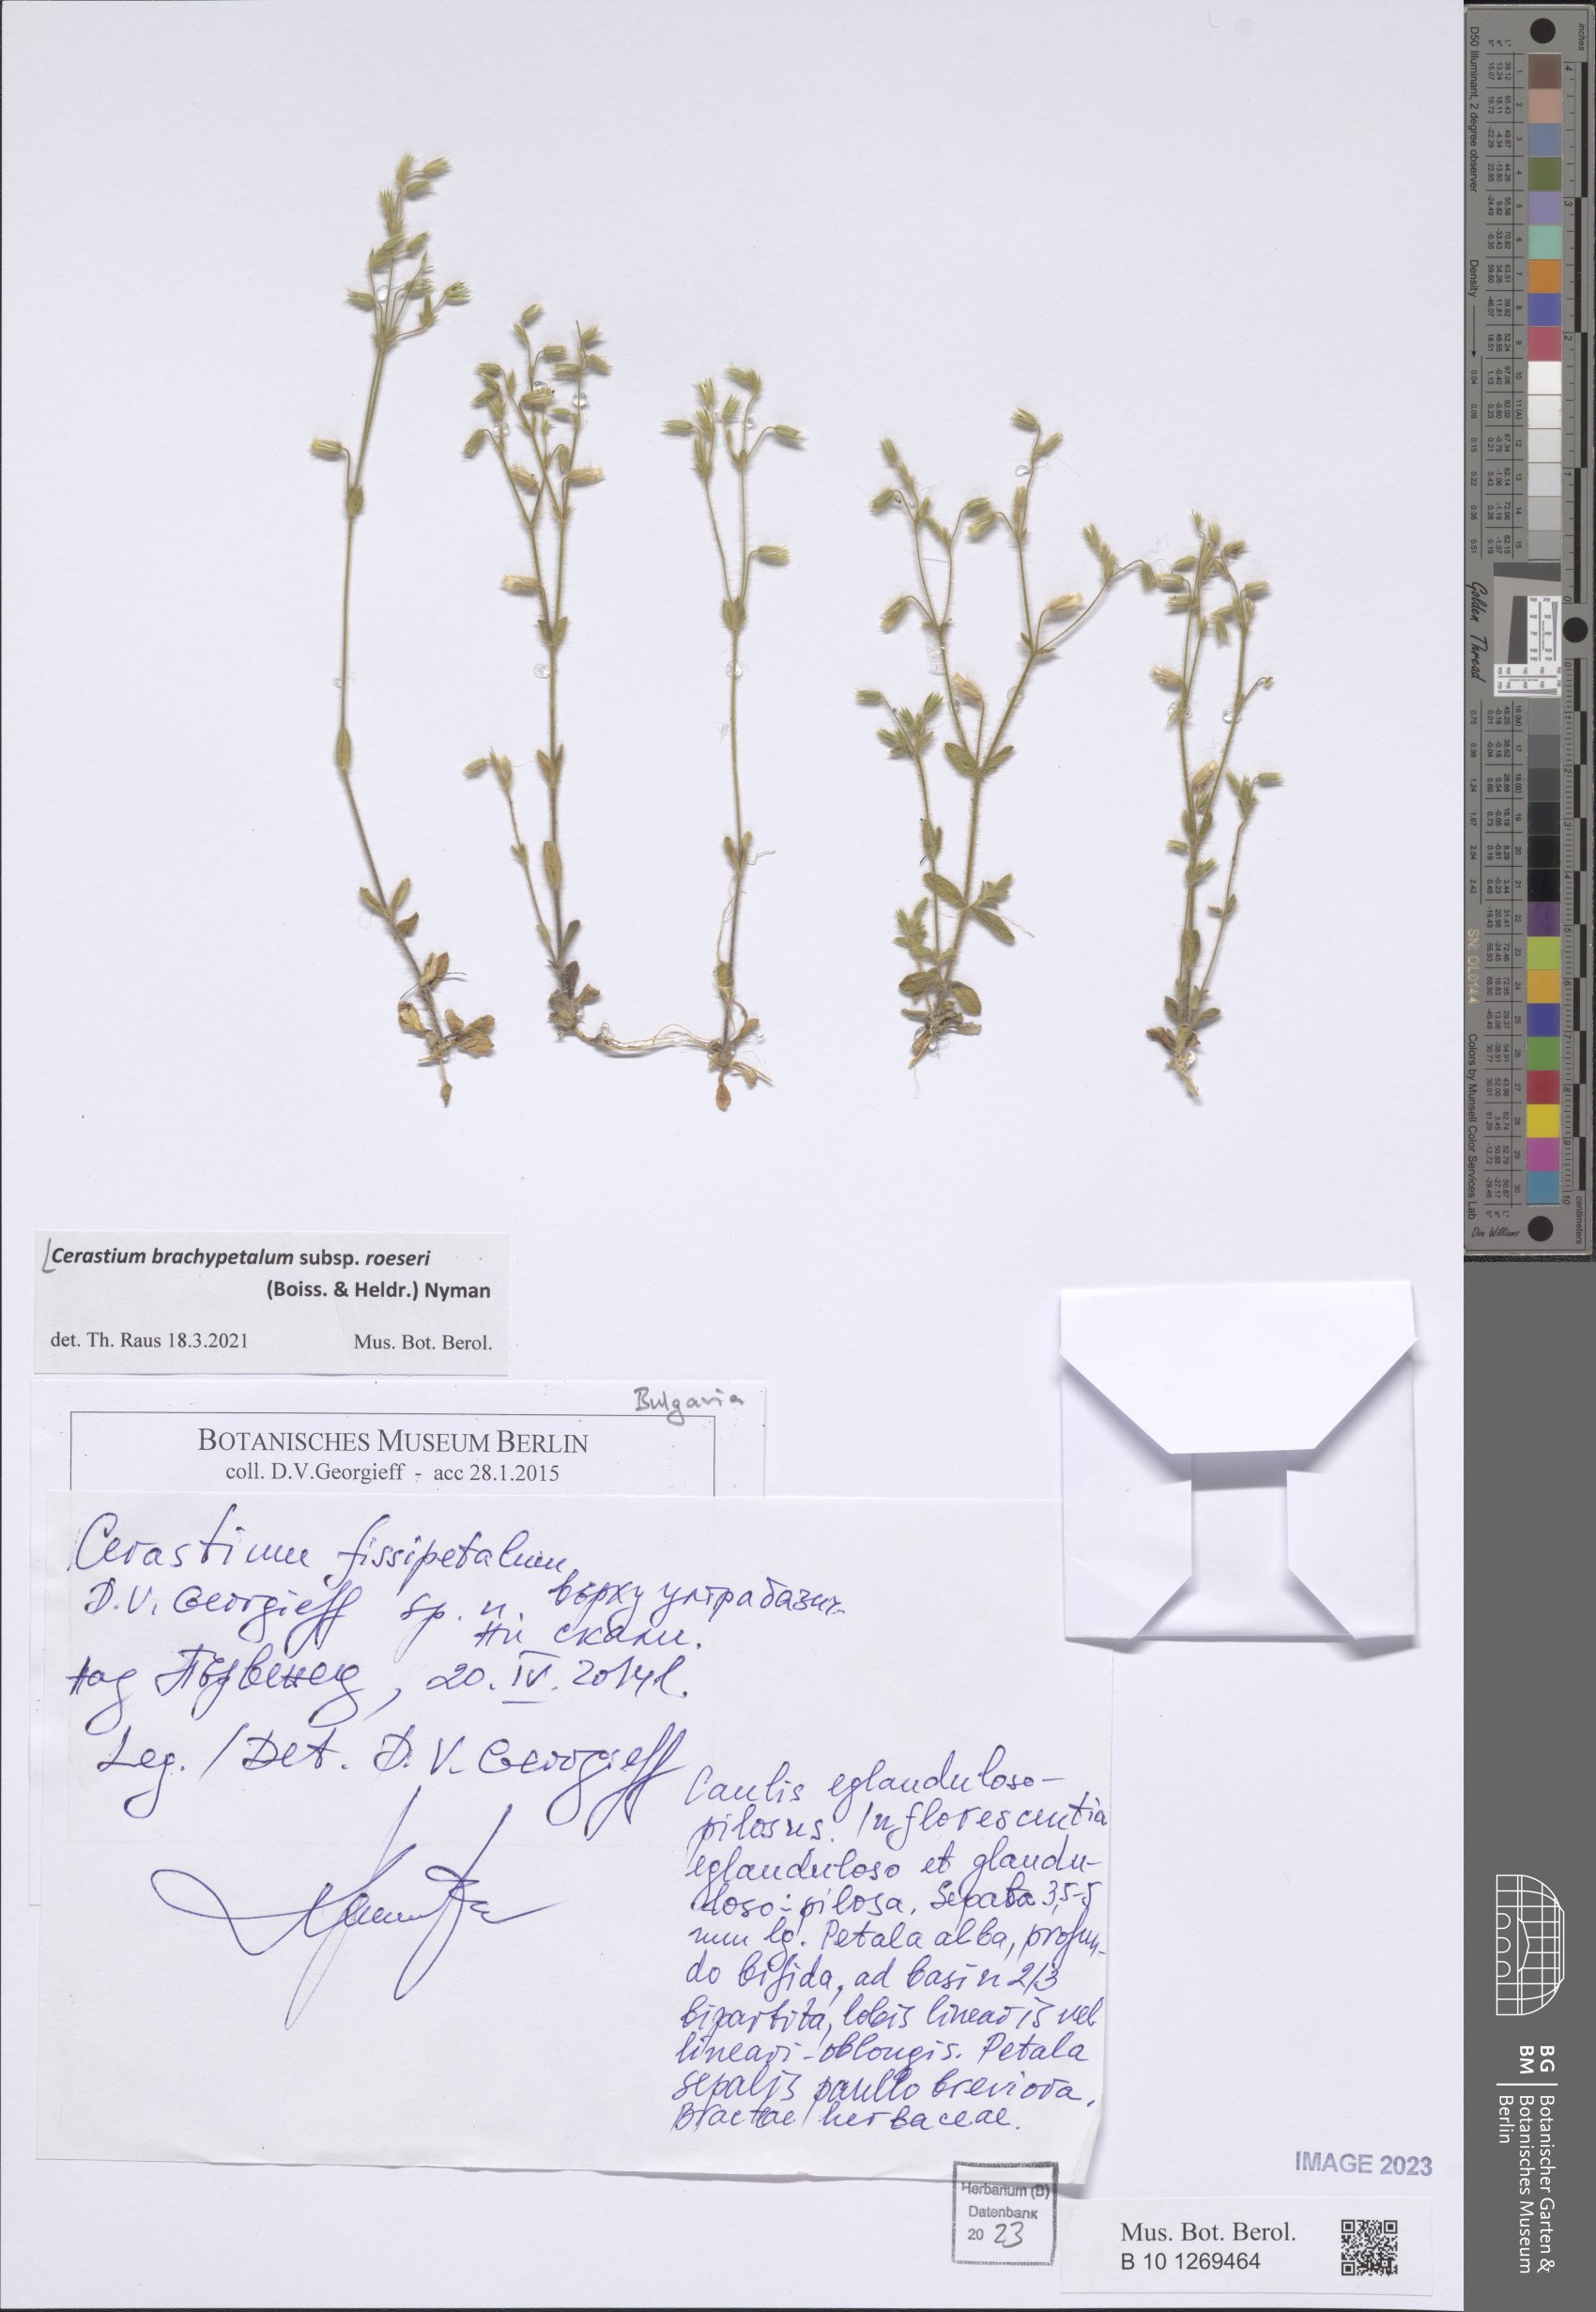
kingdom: Plantae
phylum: Tracheophyta
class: Magnoliopsida
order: Caryophyllales
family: Caryophyllaceae
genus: Cerastium
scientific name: Cerastium brachypetalum
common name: Grey mouse-ear
